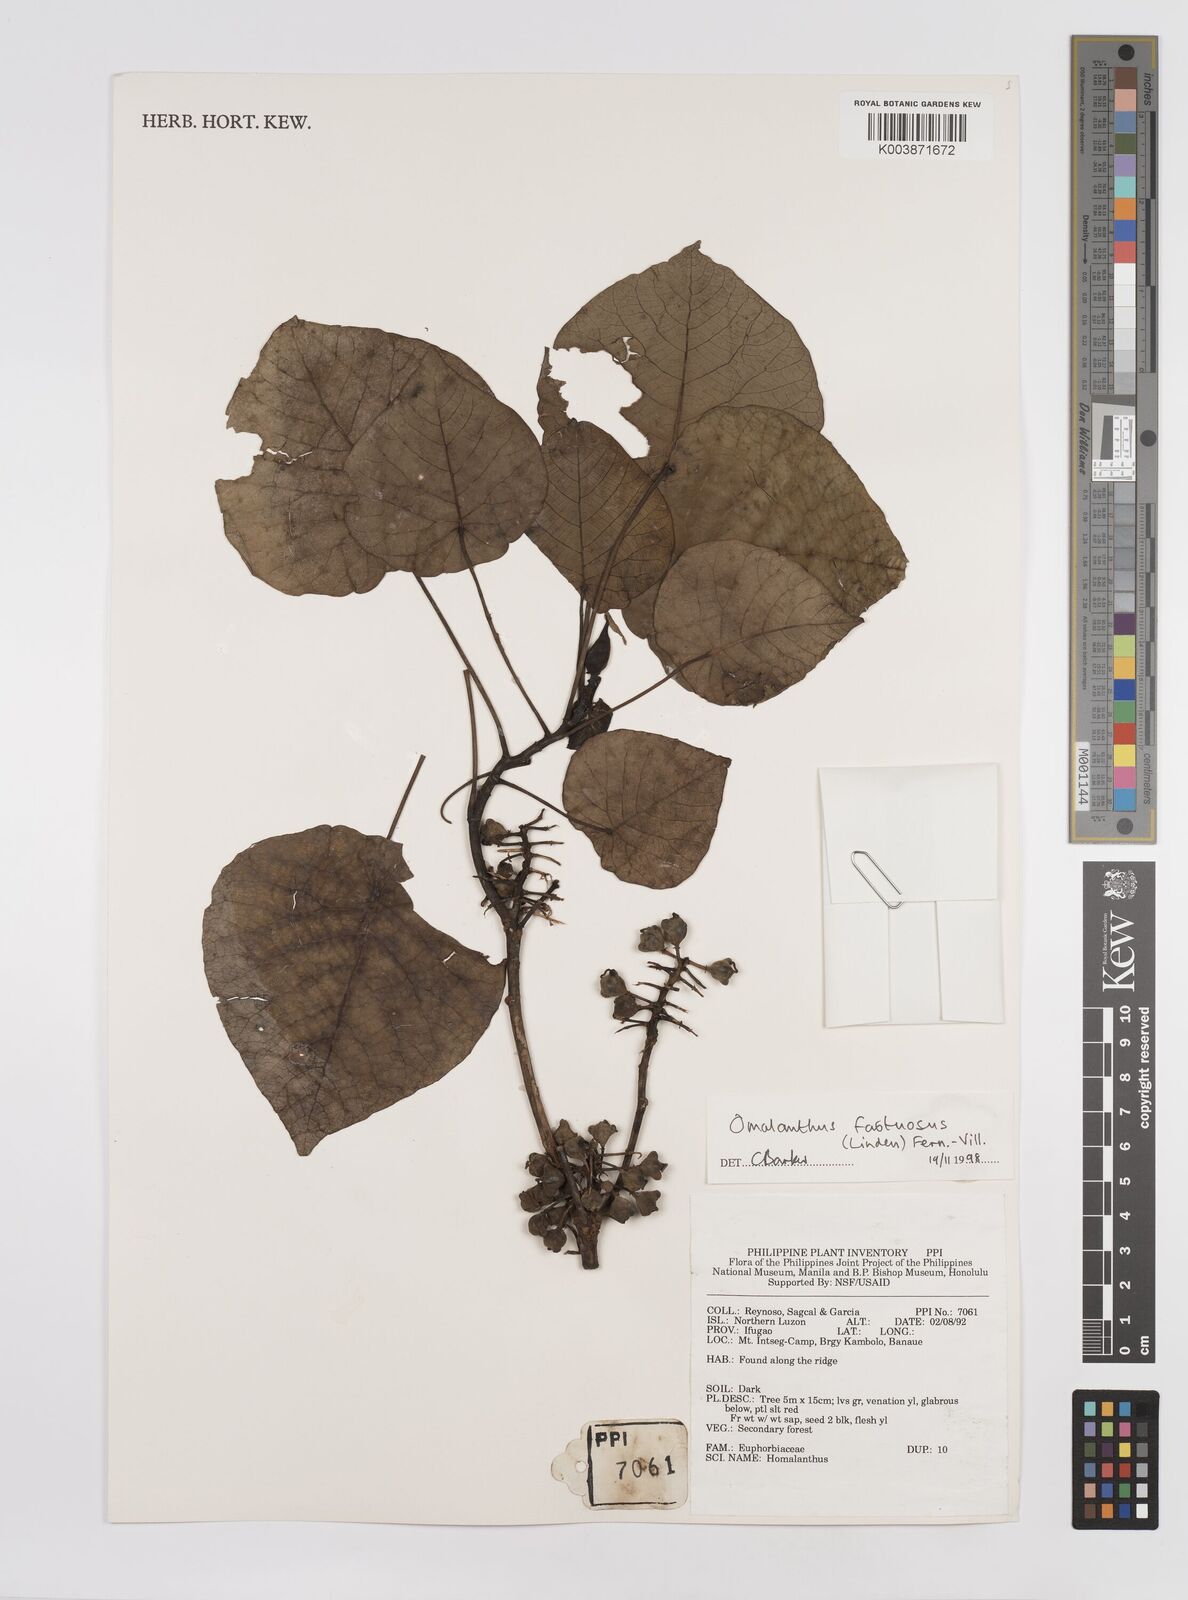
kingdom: Plantae
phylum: Tracheophyta
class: Magnoliopsida
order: Malpighiales
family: Euphorbiaceae
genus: Homalanthus
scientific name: Homalanthus fastuosus
